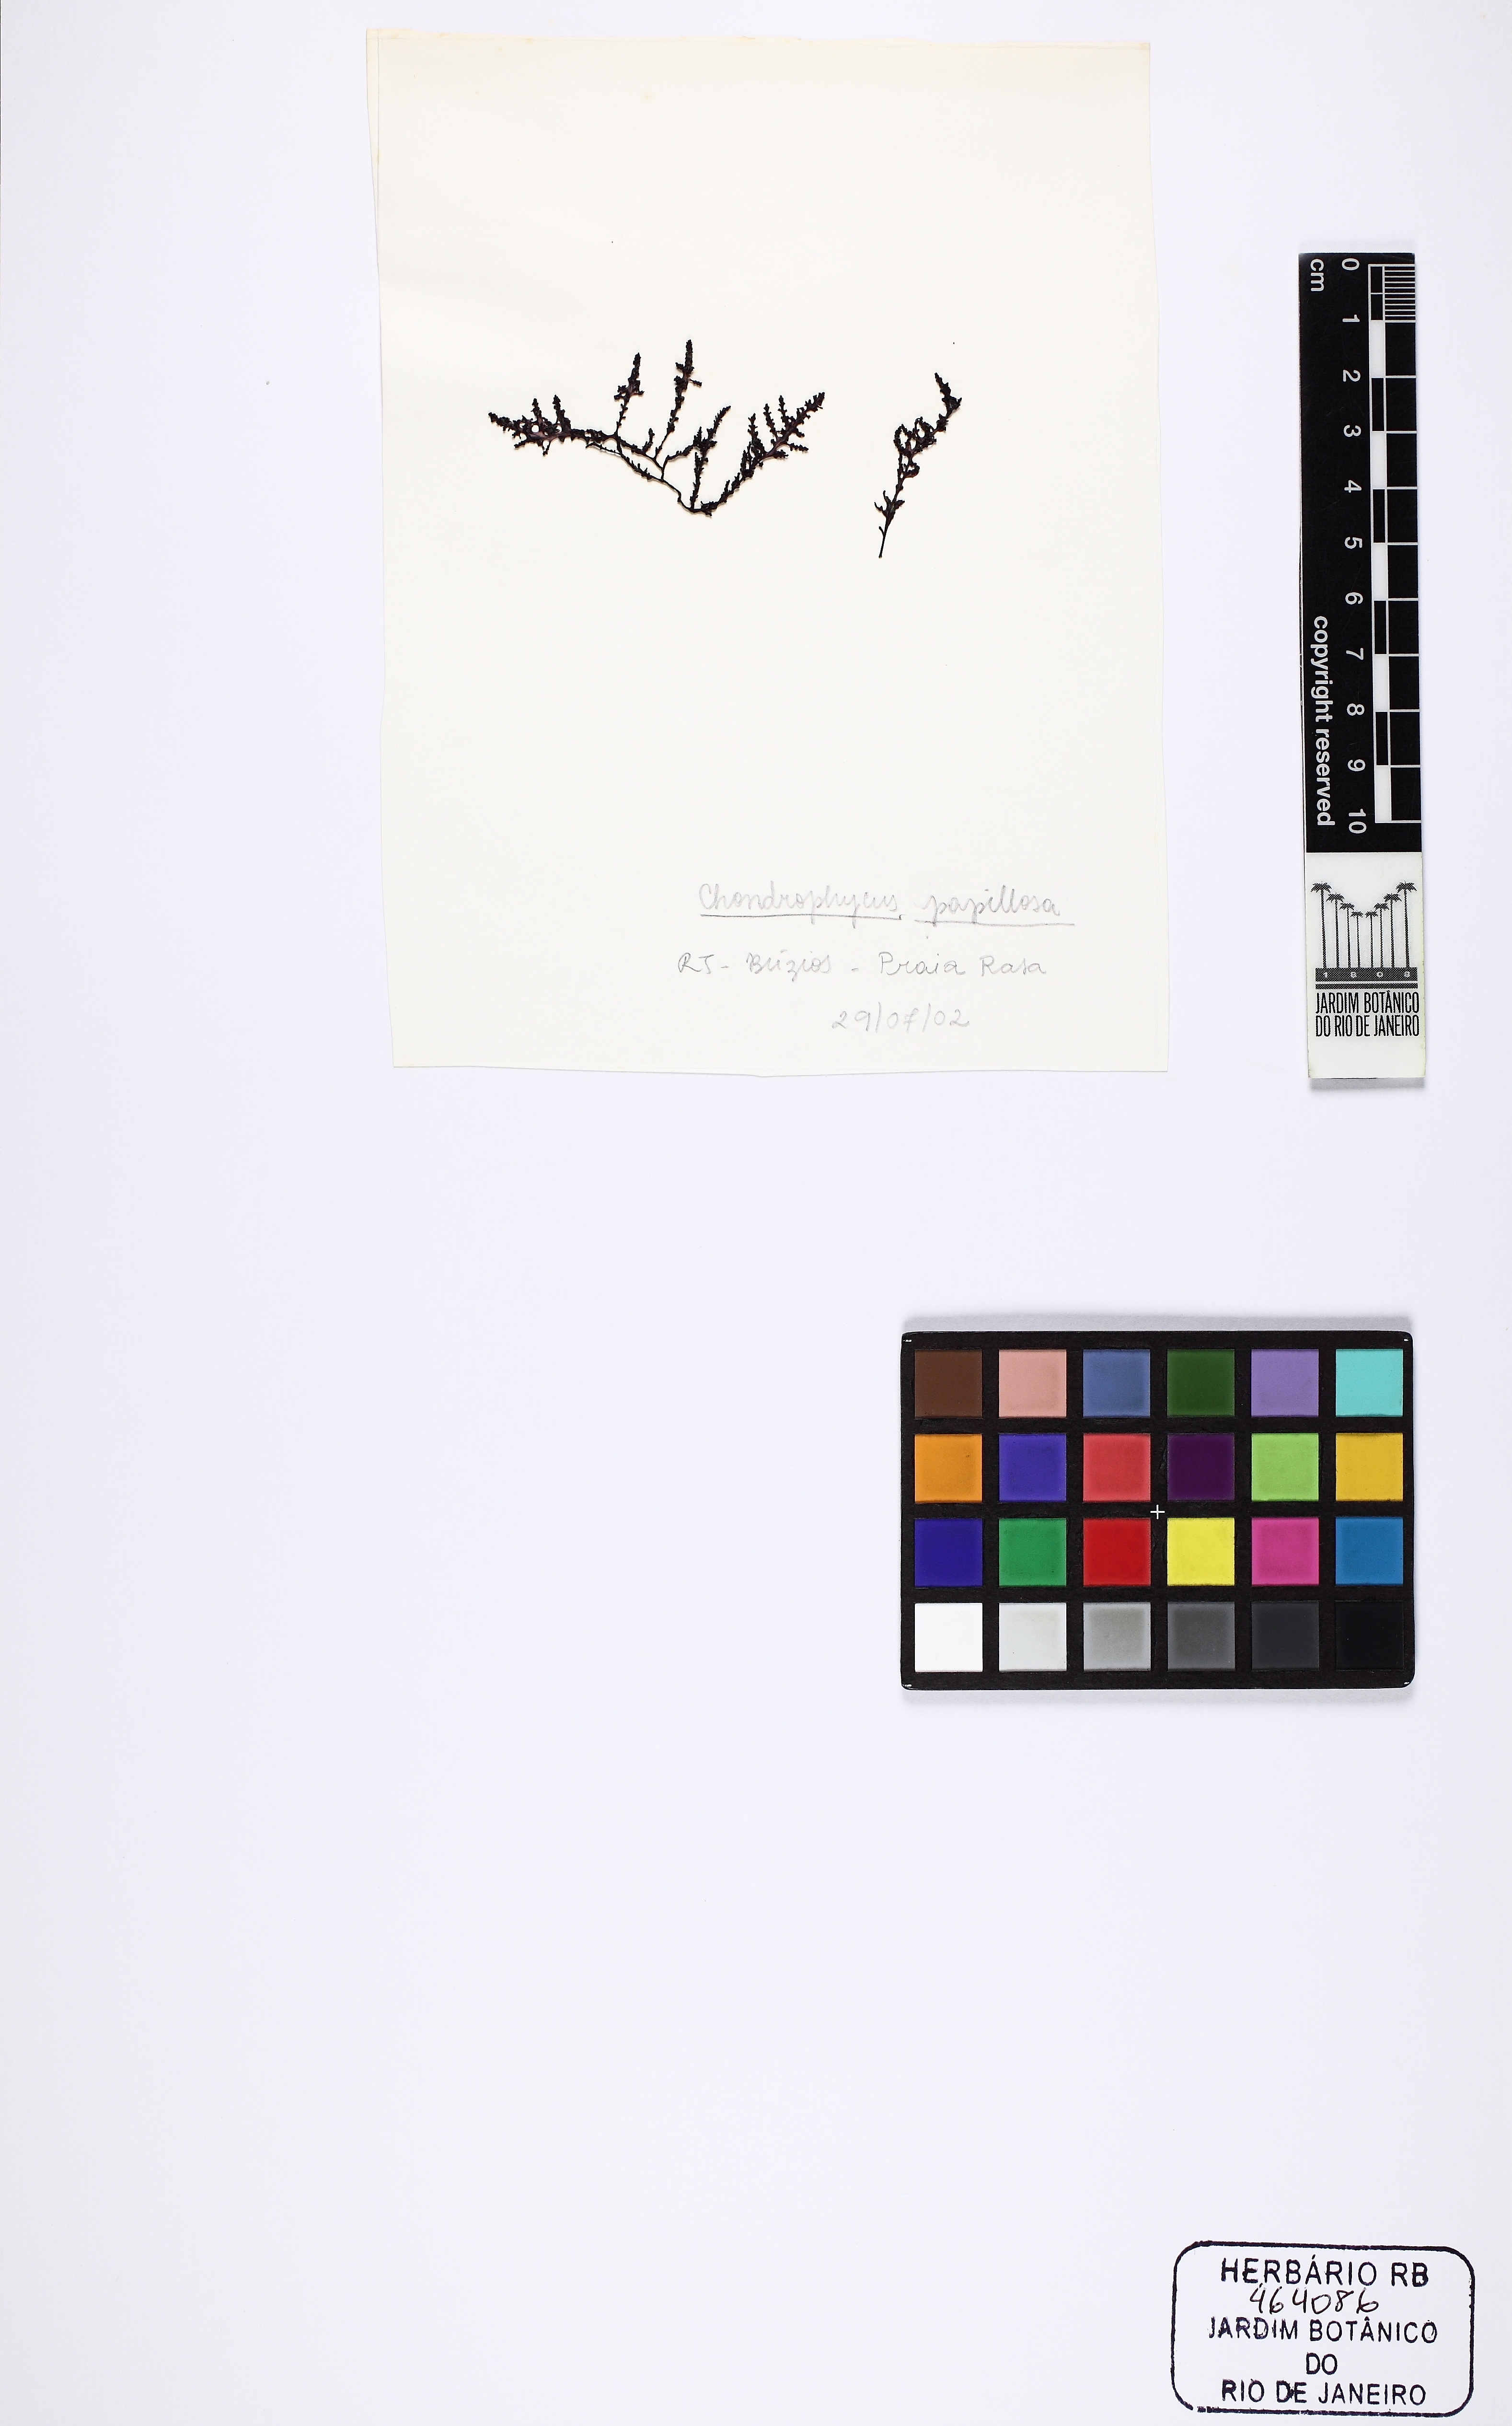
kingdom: Plantae
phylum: Rhodophyta
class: Florideophyceae
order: Ceramiales
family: Rhodomelaceae
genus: Palisada
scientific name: Palisada perforata
